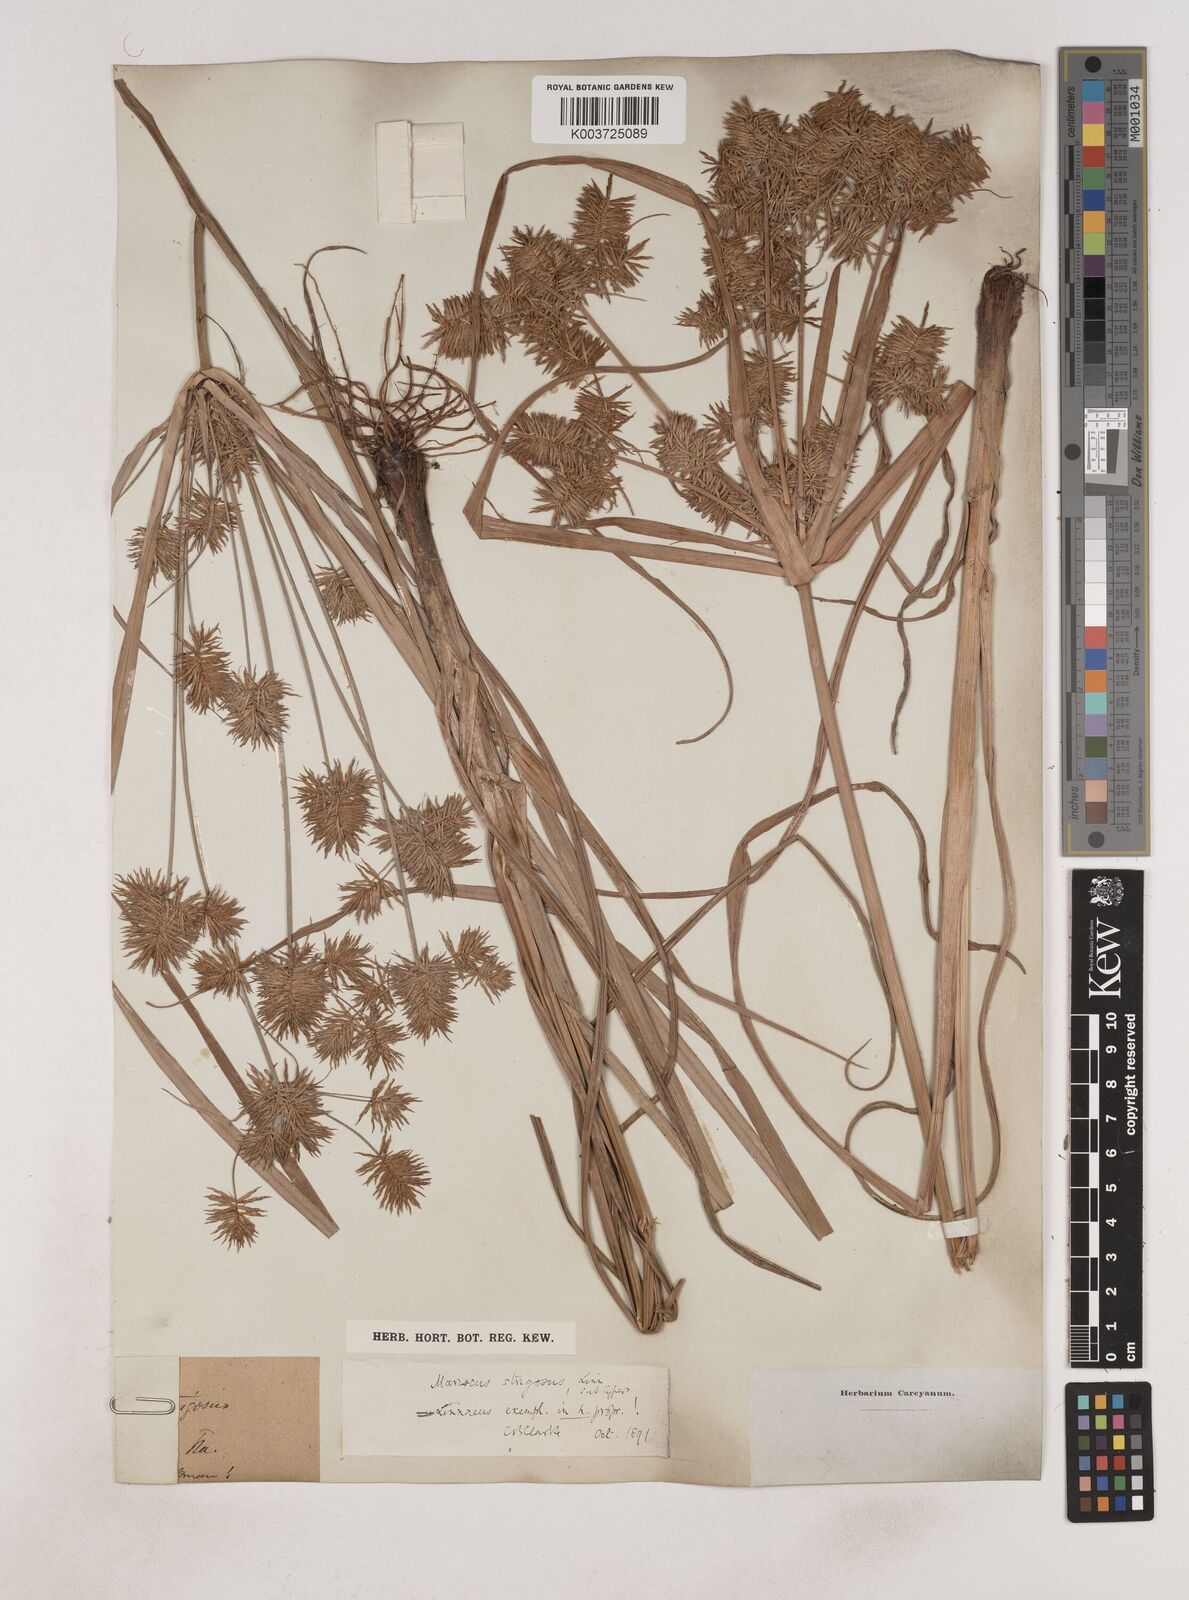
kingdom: Plantae
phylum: Tracheophyta
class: Liliopsida
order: Poales
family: Cyperaceae
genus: Cyperus
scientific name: Cyperus strigosus
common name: False nutsedge
